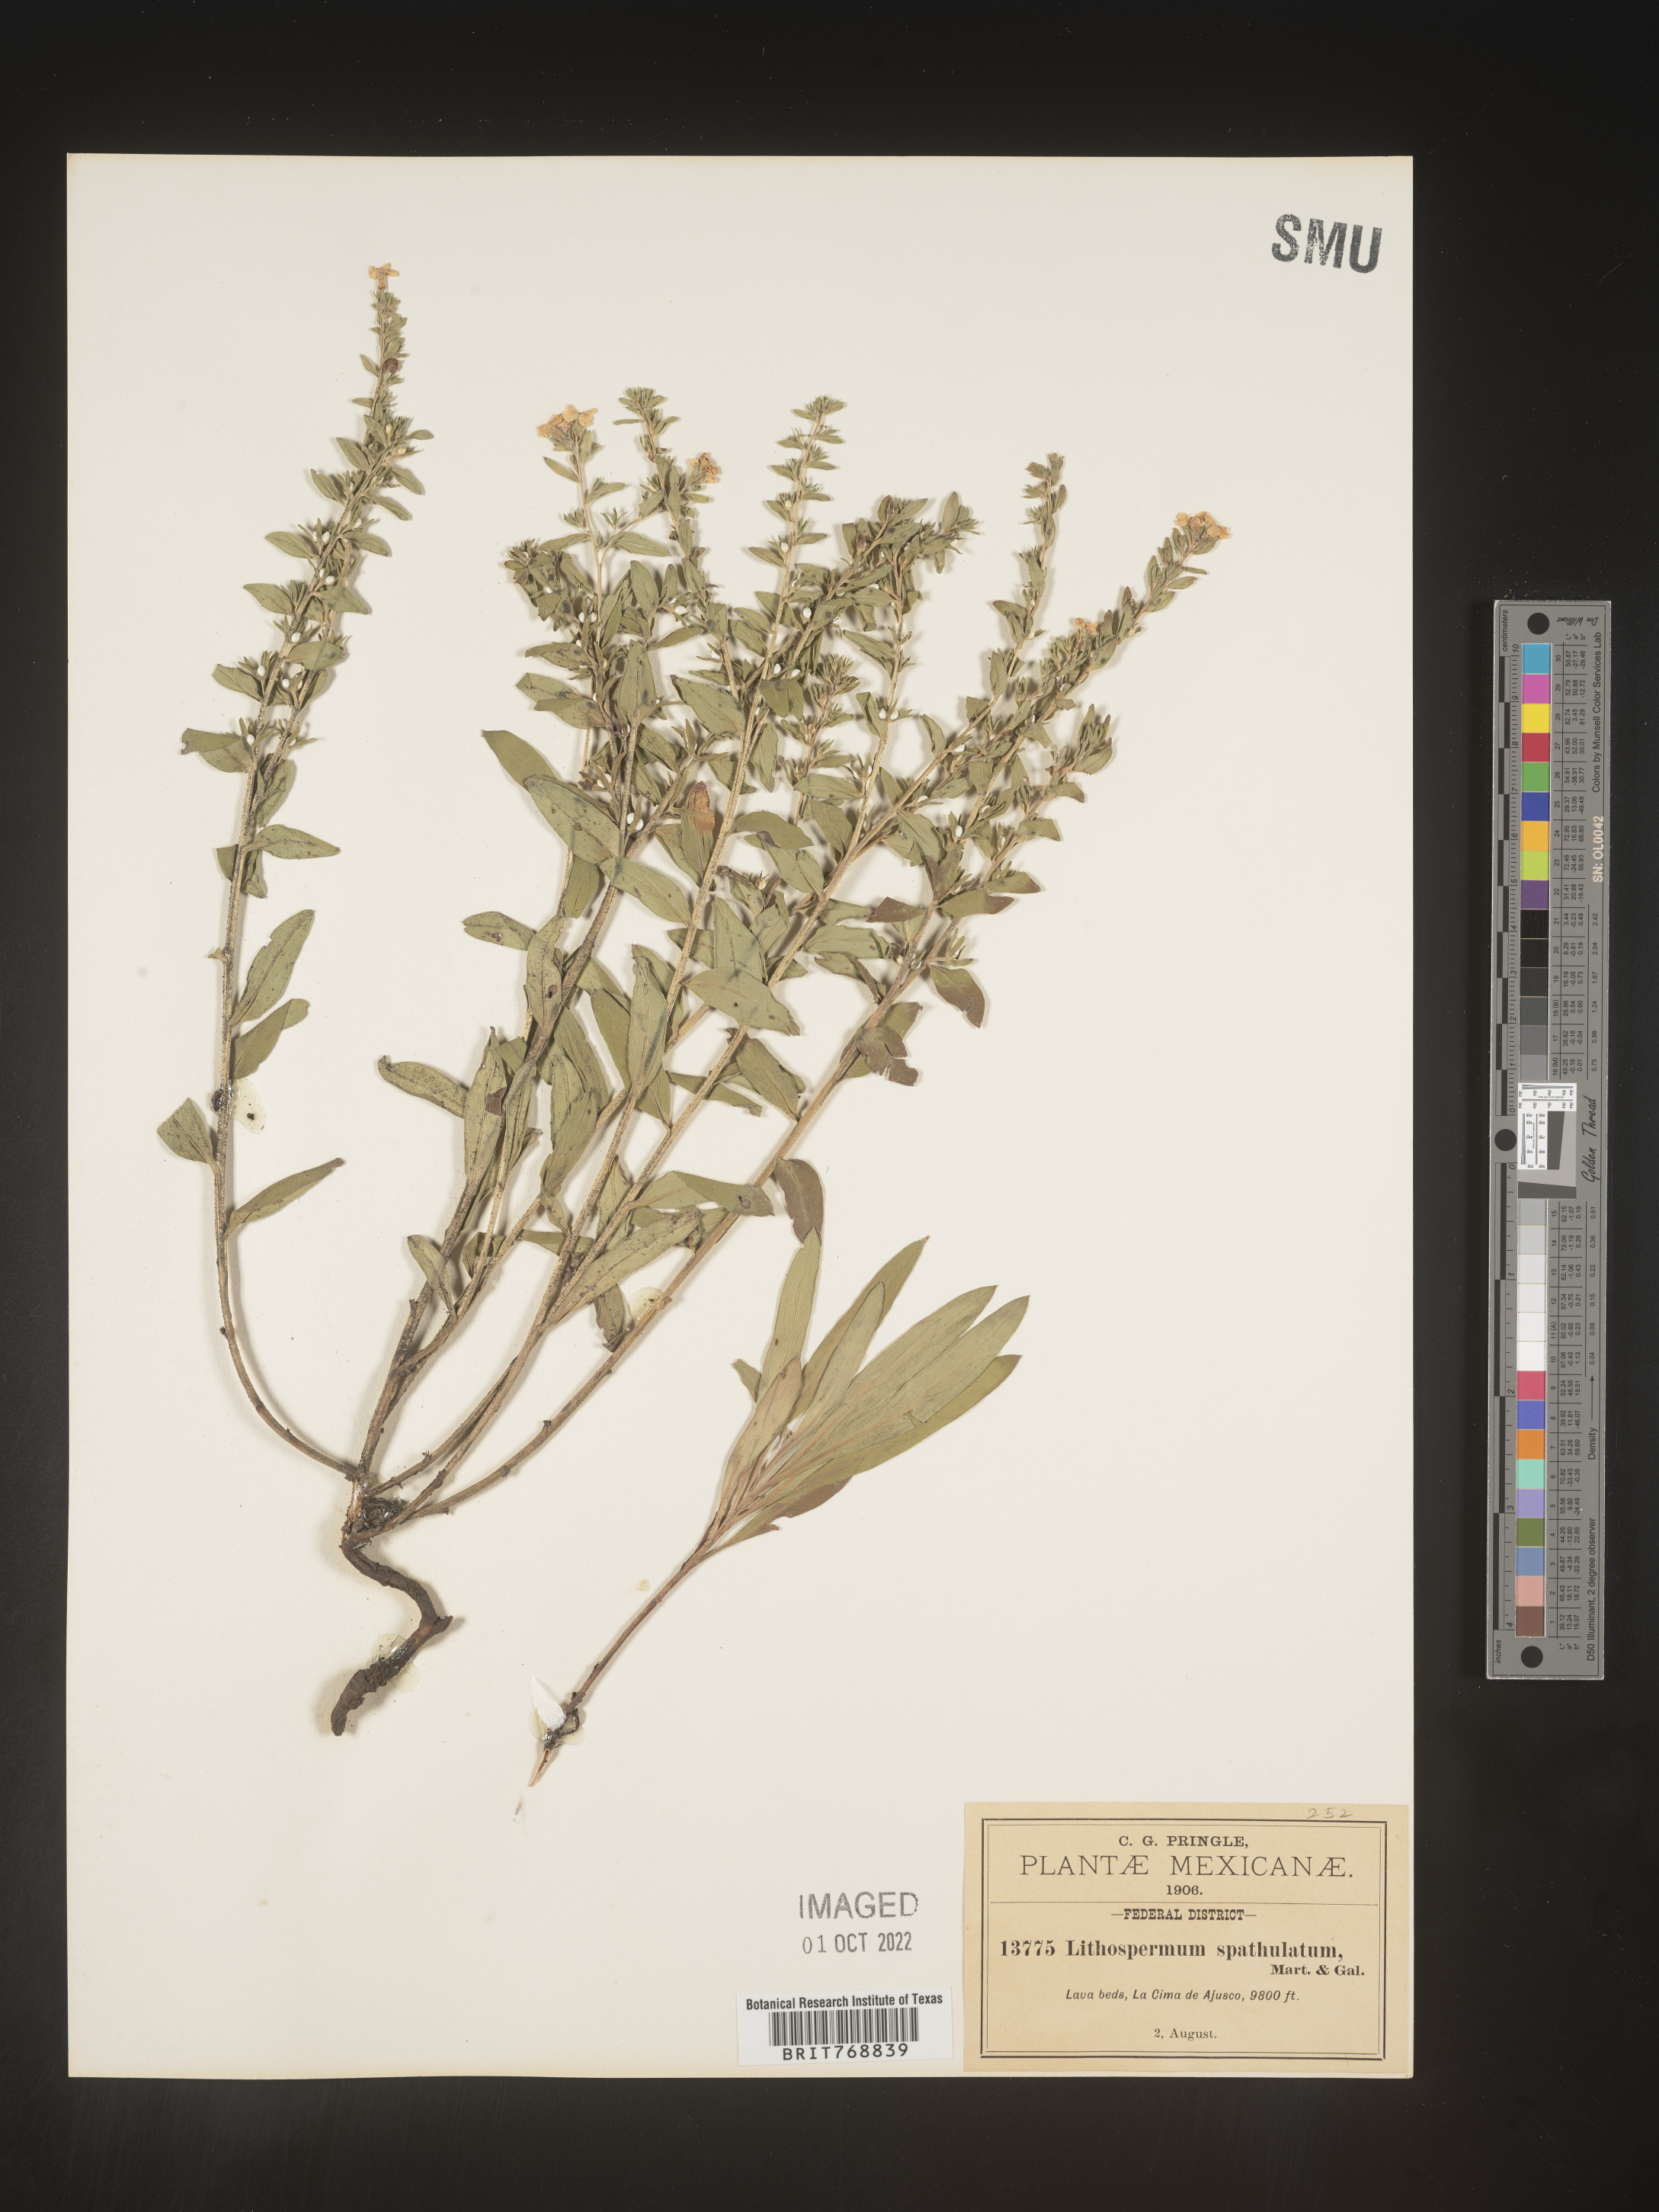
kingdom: Plantae
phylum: Tracheophyta
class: Magnoliopsida
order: Boraginales
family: Boraginaceae
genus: Lithospermum
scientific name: Lithospermum
